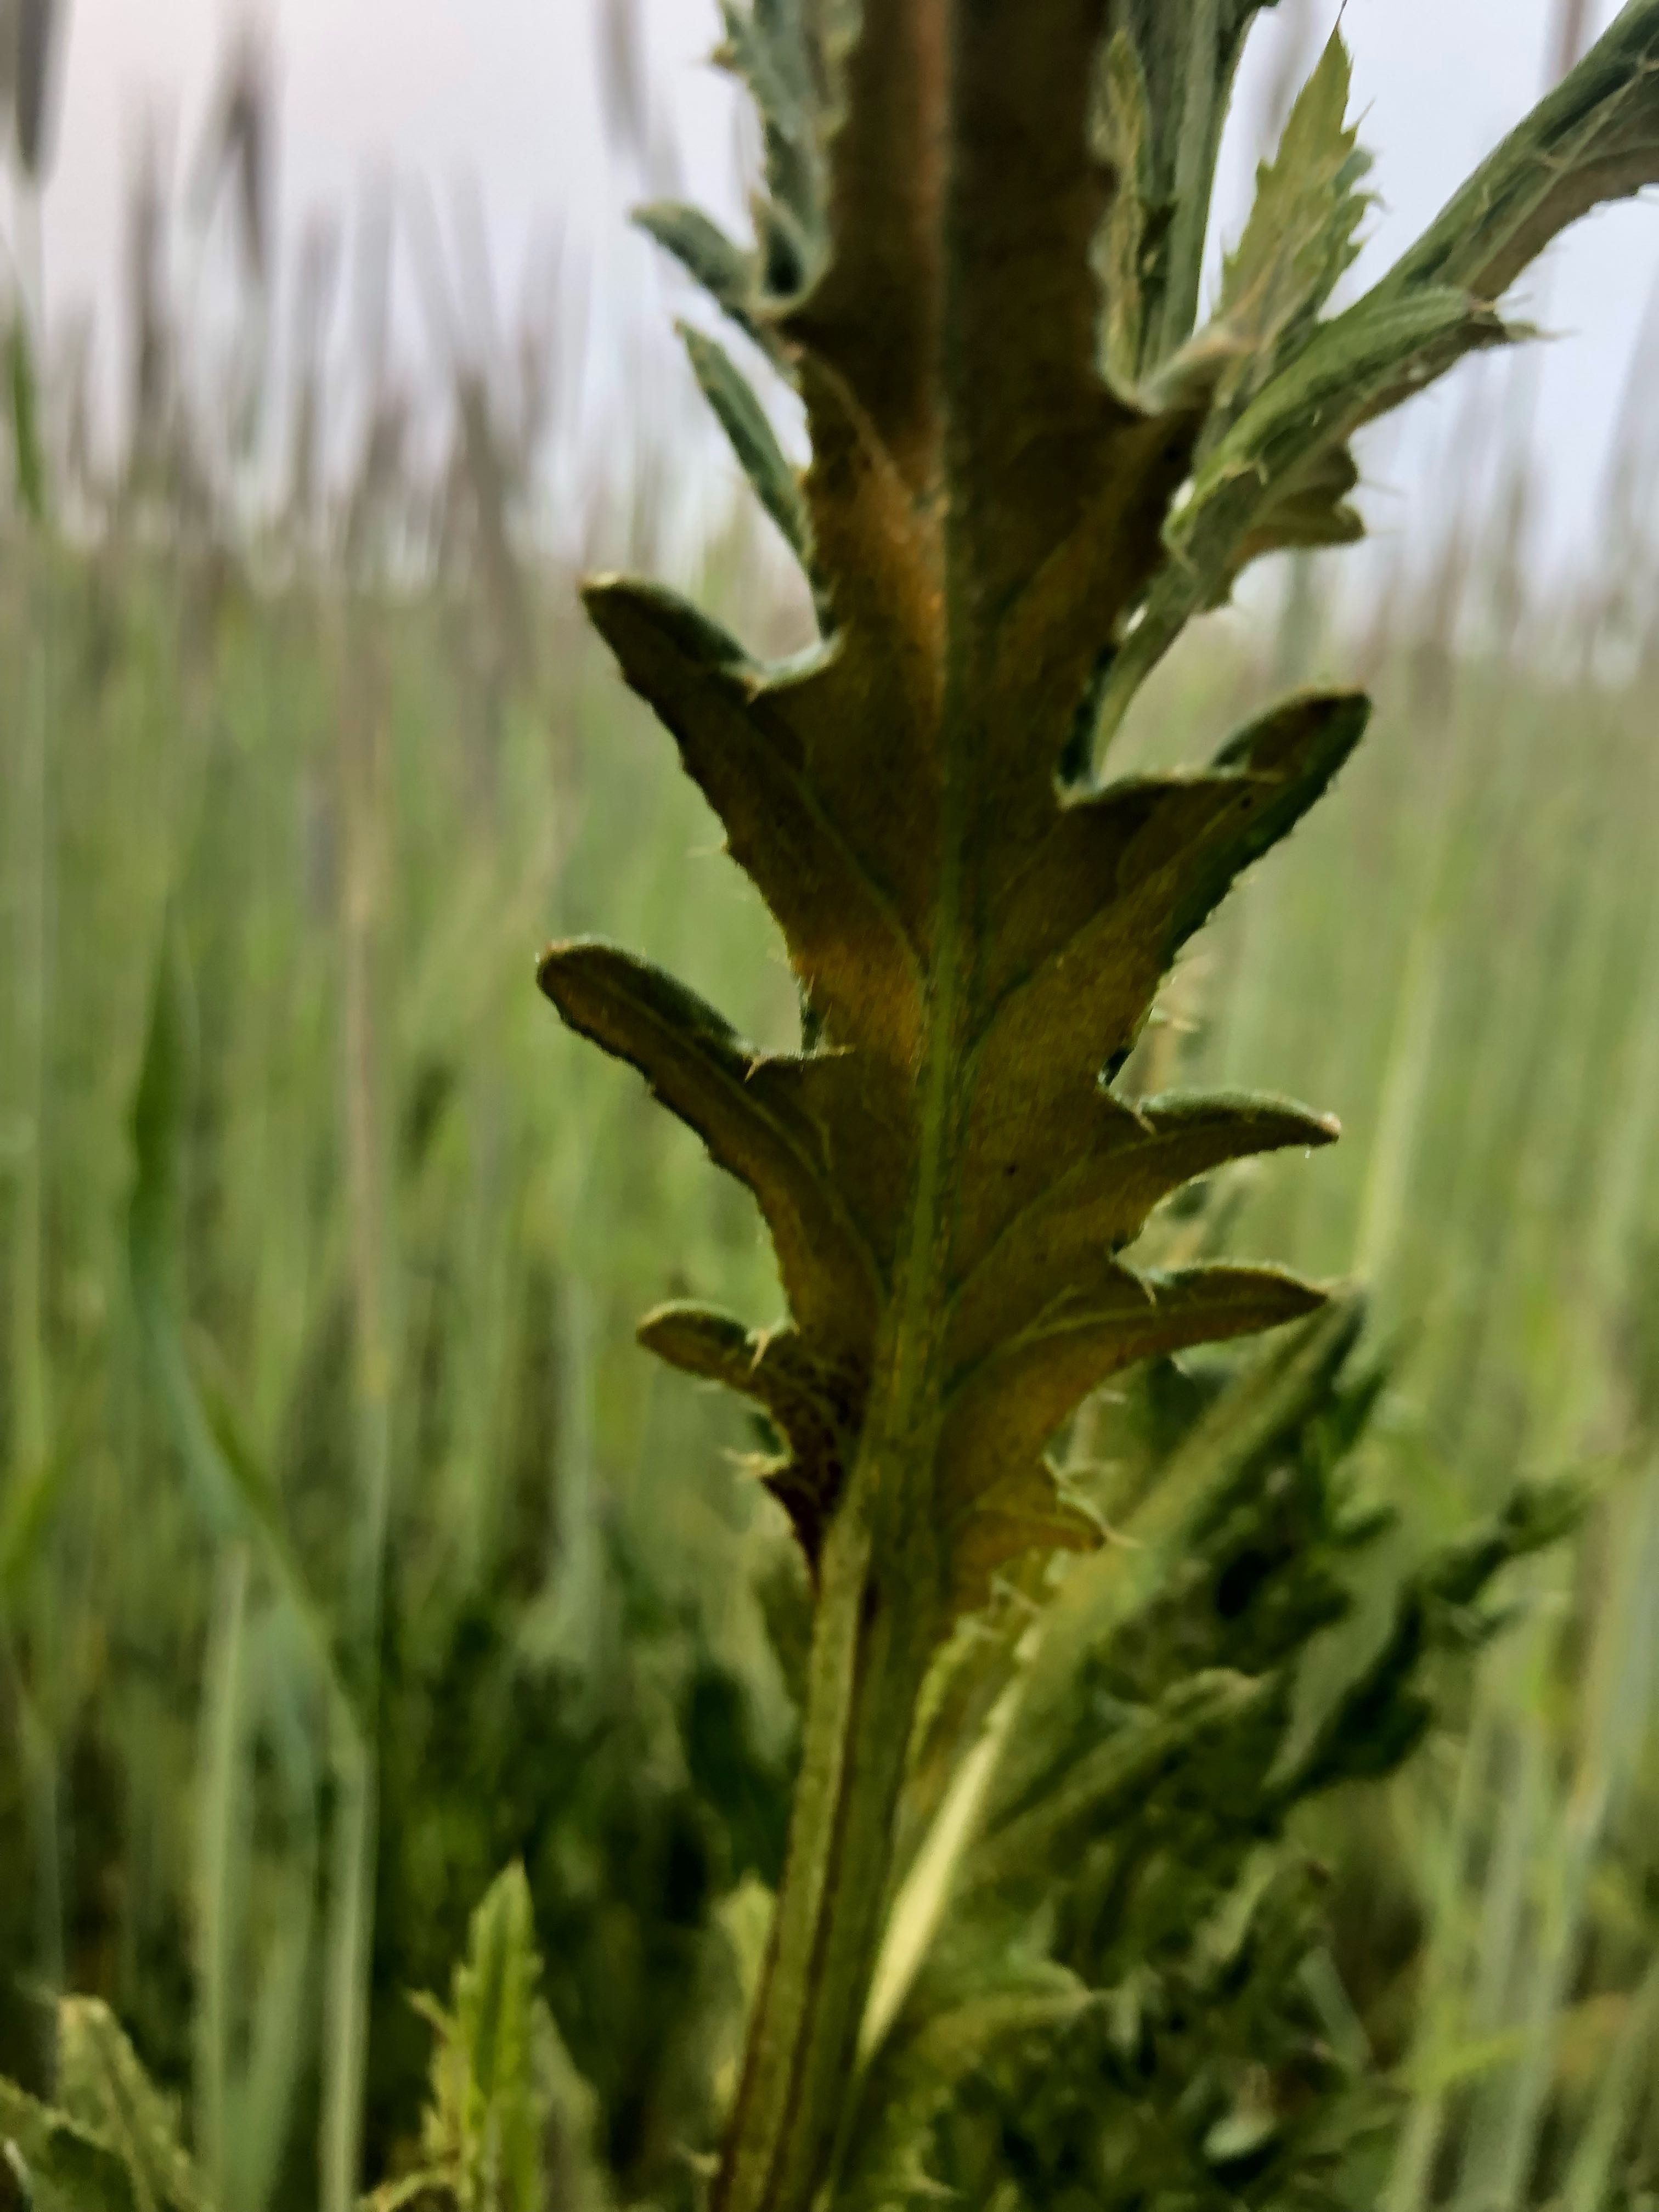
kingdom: Fungi
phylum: Basidiomycota
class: Pucciniomycetes
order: Pucciniales
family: Pucciniaceae
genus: Puccinia
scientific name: Puccinia suaveolens
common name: tidsel-tvecellerust
